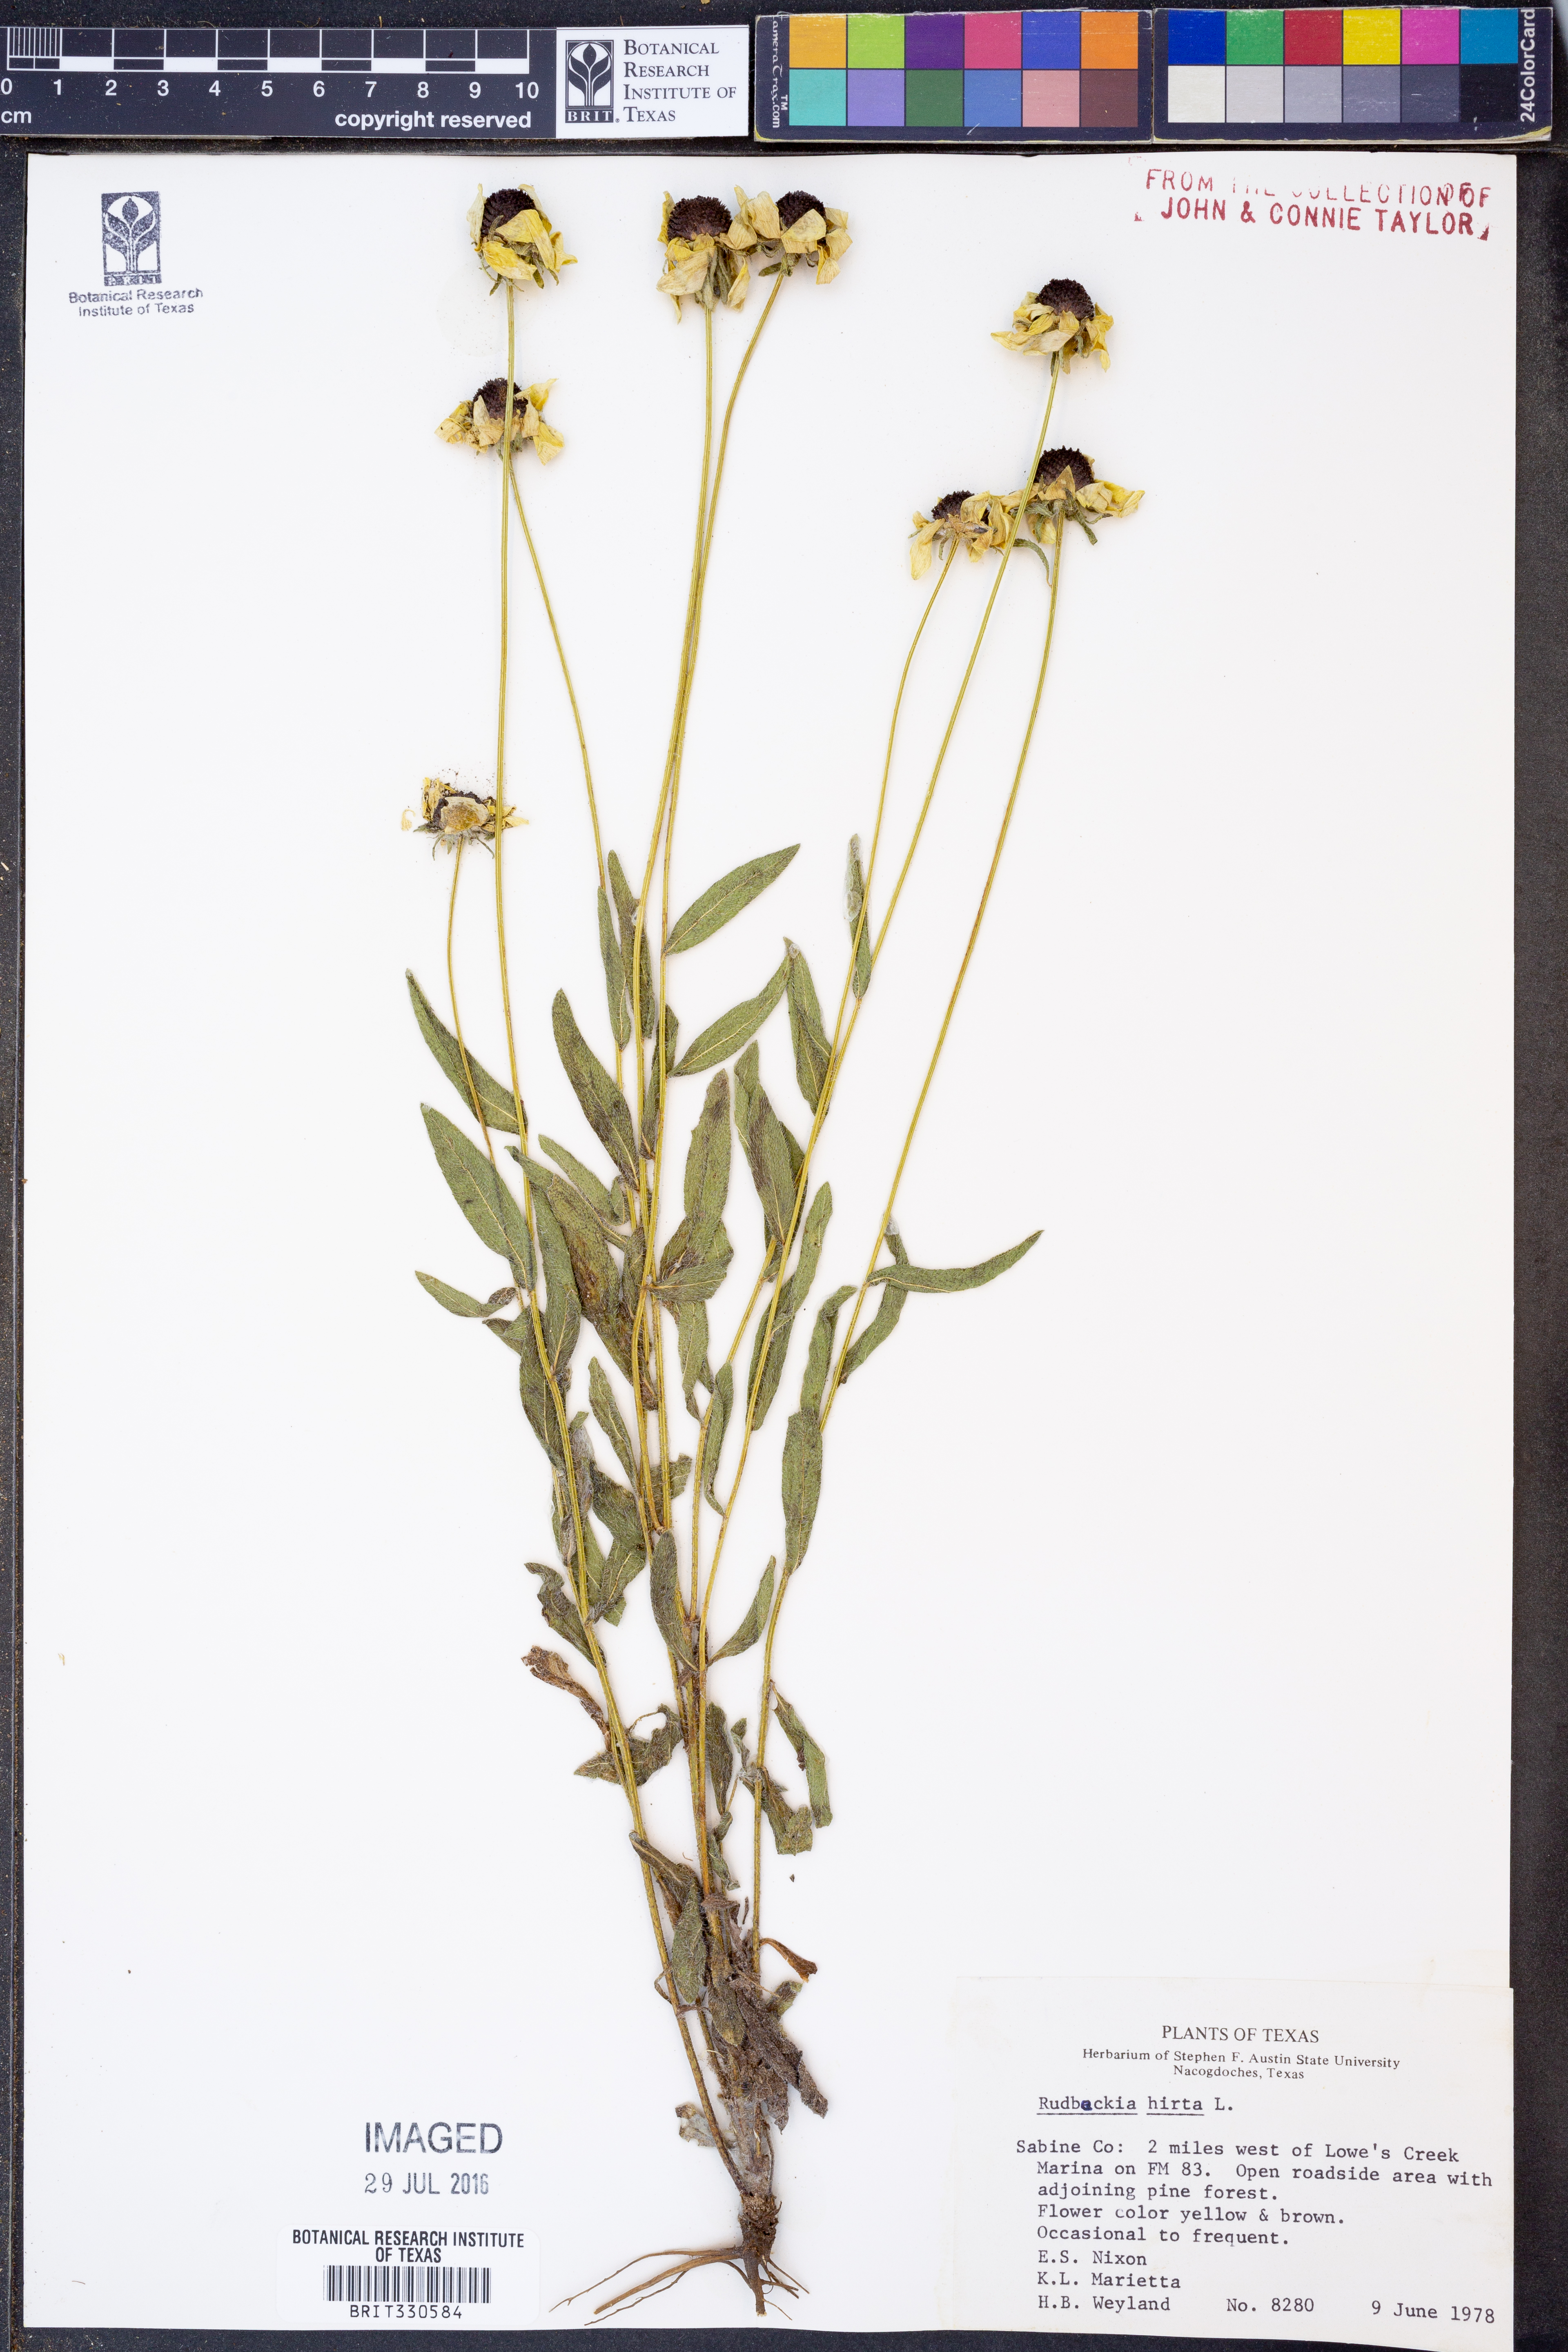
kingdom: Plantae
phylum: Tracheophyta
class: Magnoliopsida
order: Asterales
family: Asteraceae
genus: Rudbeckia
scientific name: Rudbeckia hirta
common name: Black-eyed-susan
